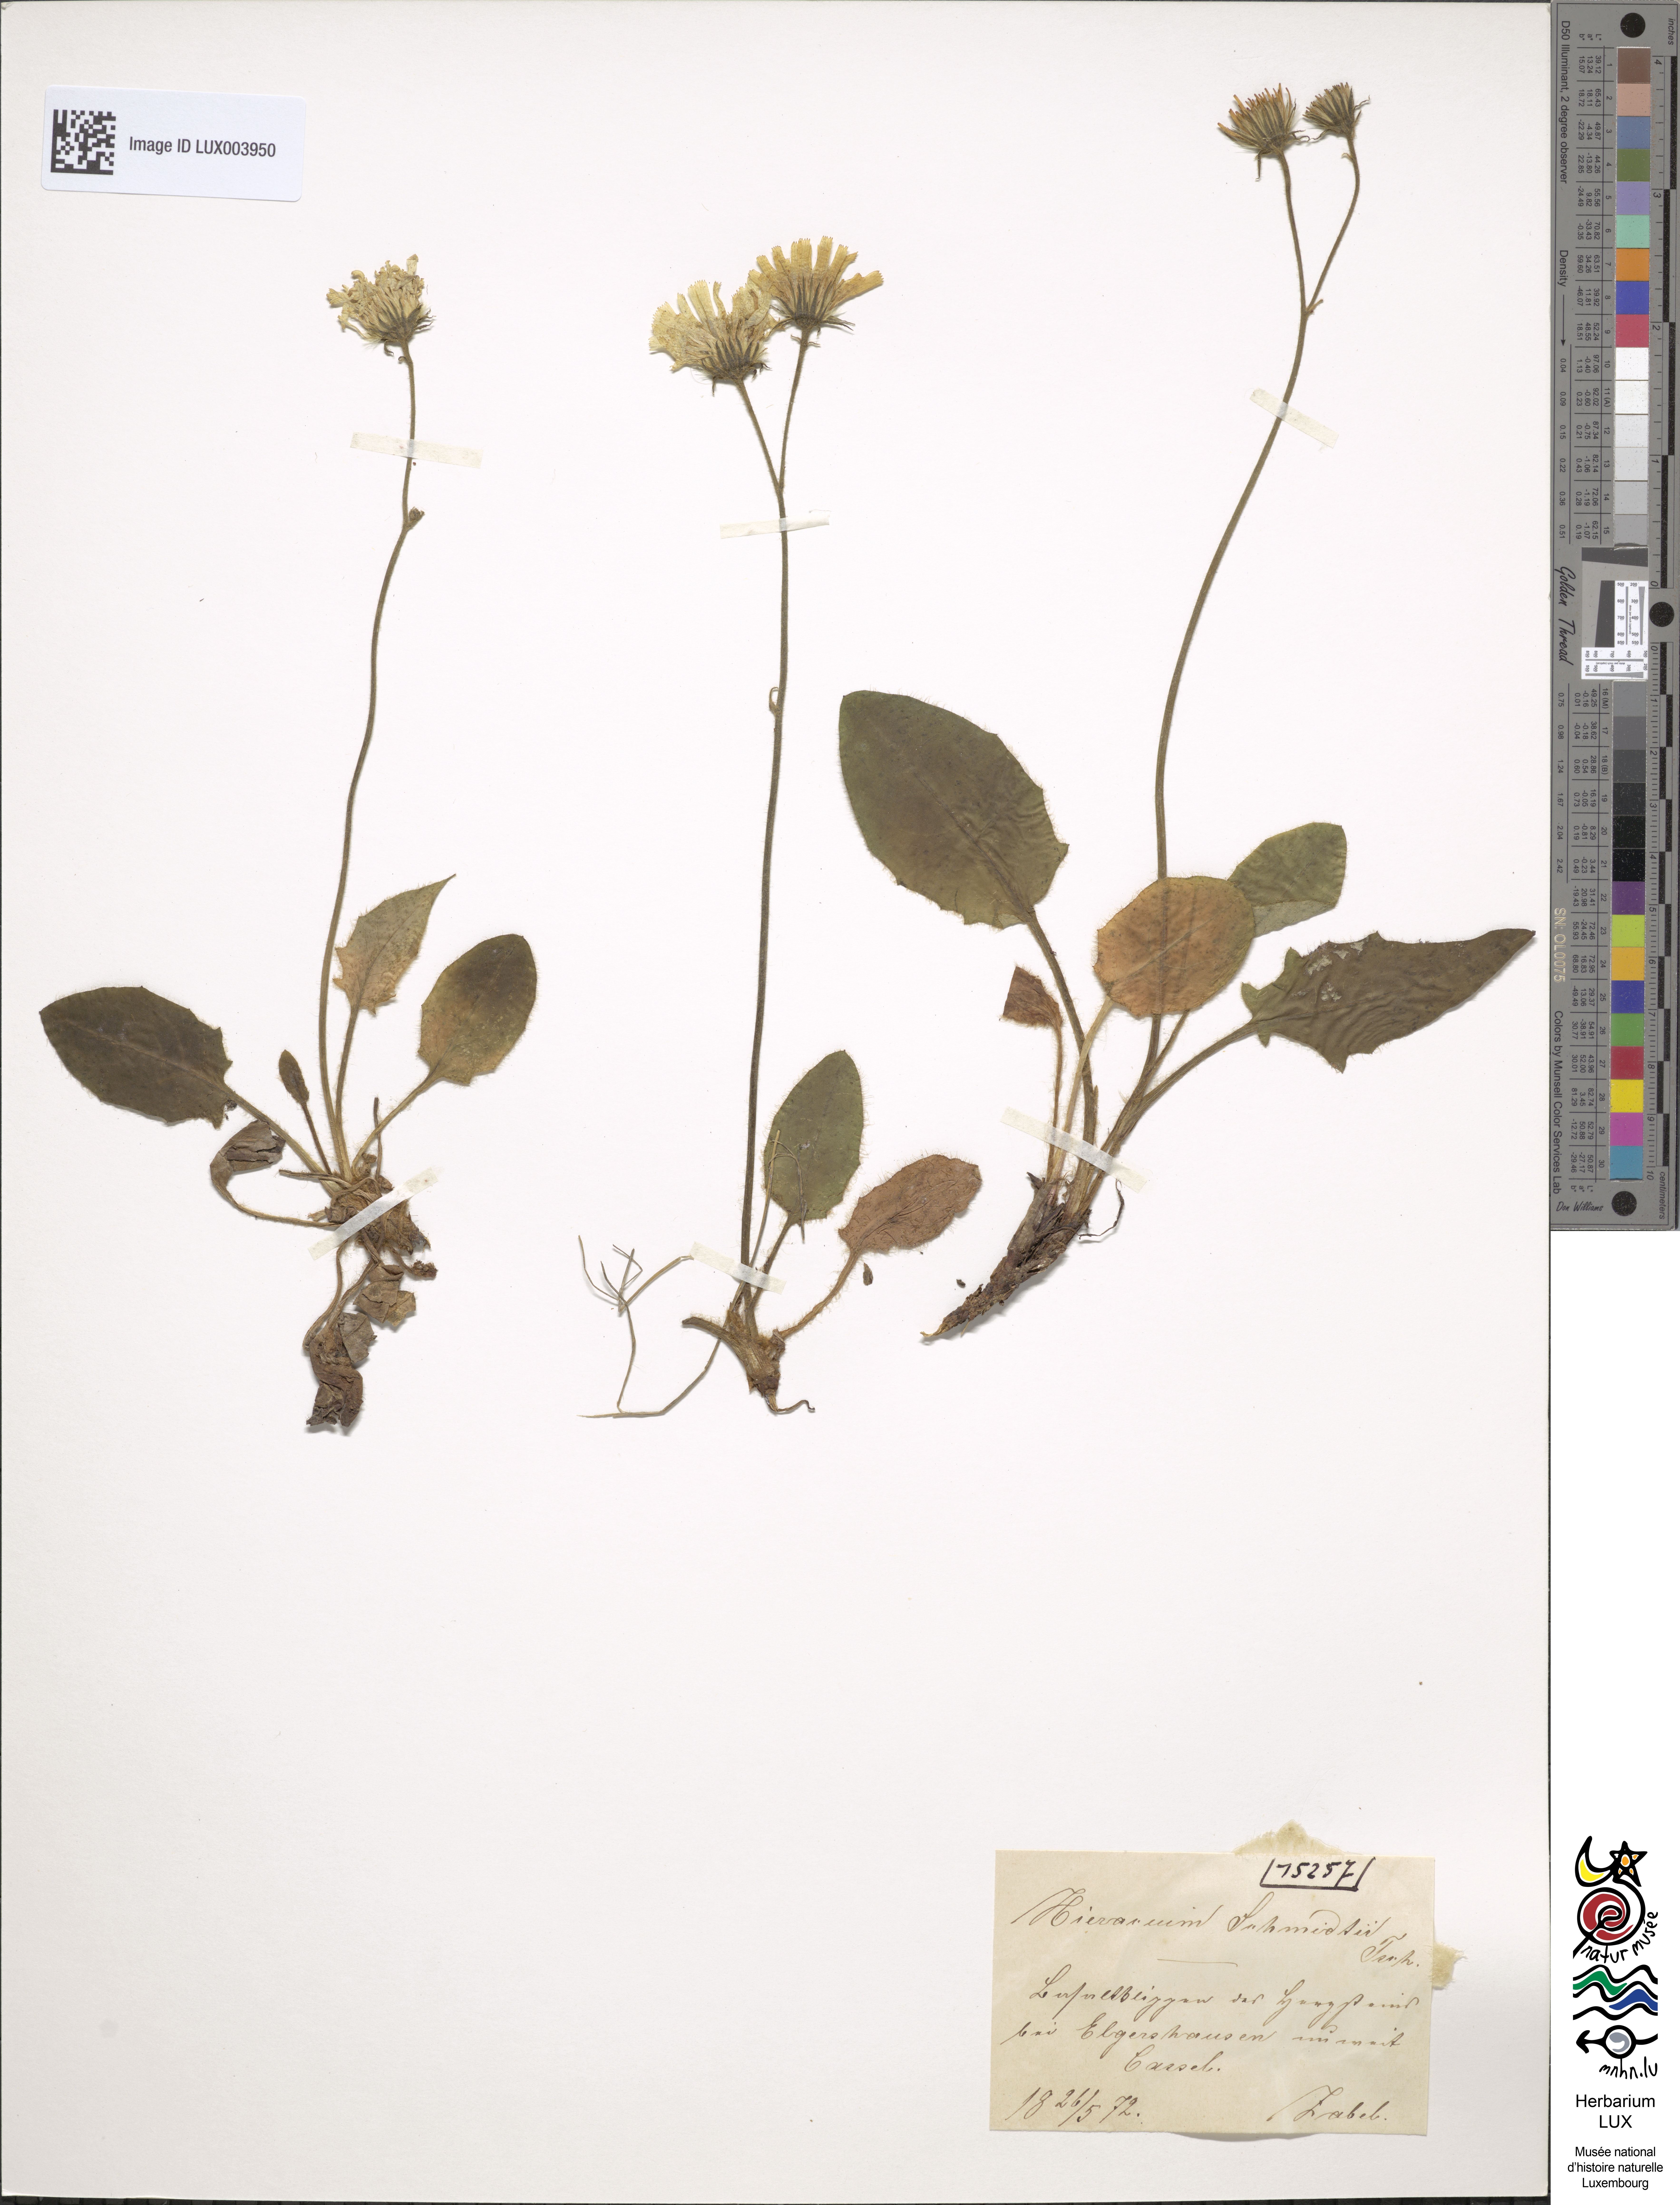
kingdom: Plantae
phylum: Tracheophyta
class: Magnoliopsida
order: Asterales
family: Asteraceae
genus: Hieracium
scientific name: Hieracium schmidtii
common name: Schmidt's hawkweed
